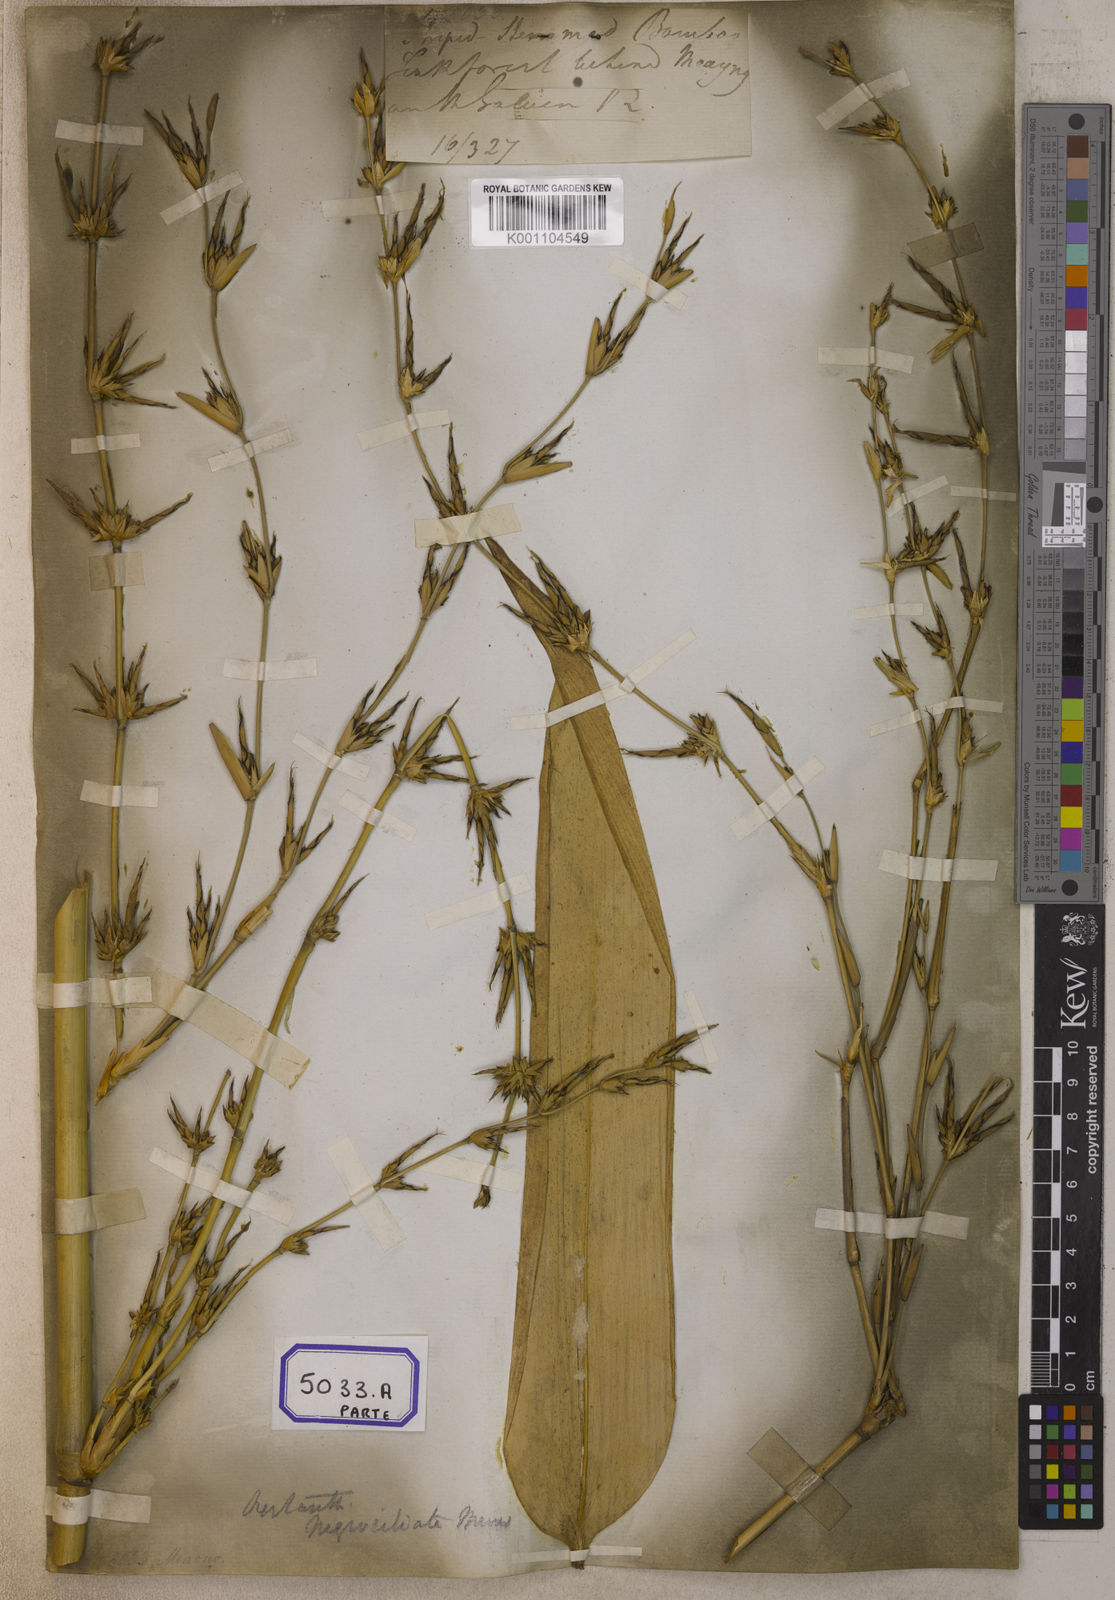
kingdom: Plantae
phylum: Tracheophyta
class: Liliopsida
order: Poales
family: Poaceae
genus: Bambusa
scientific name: Bambusa
